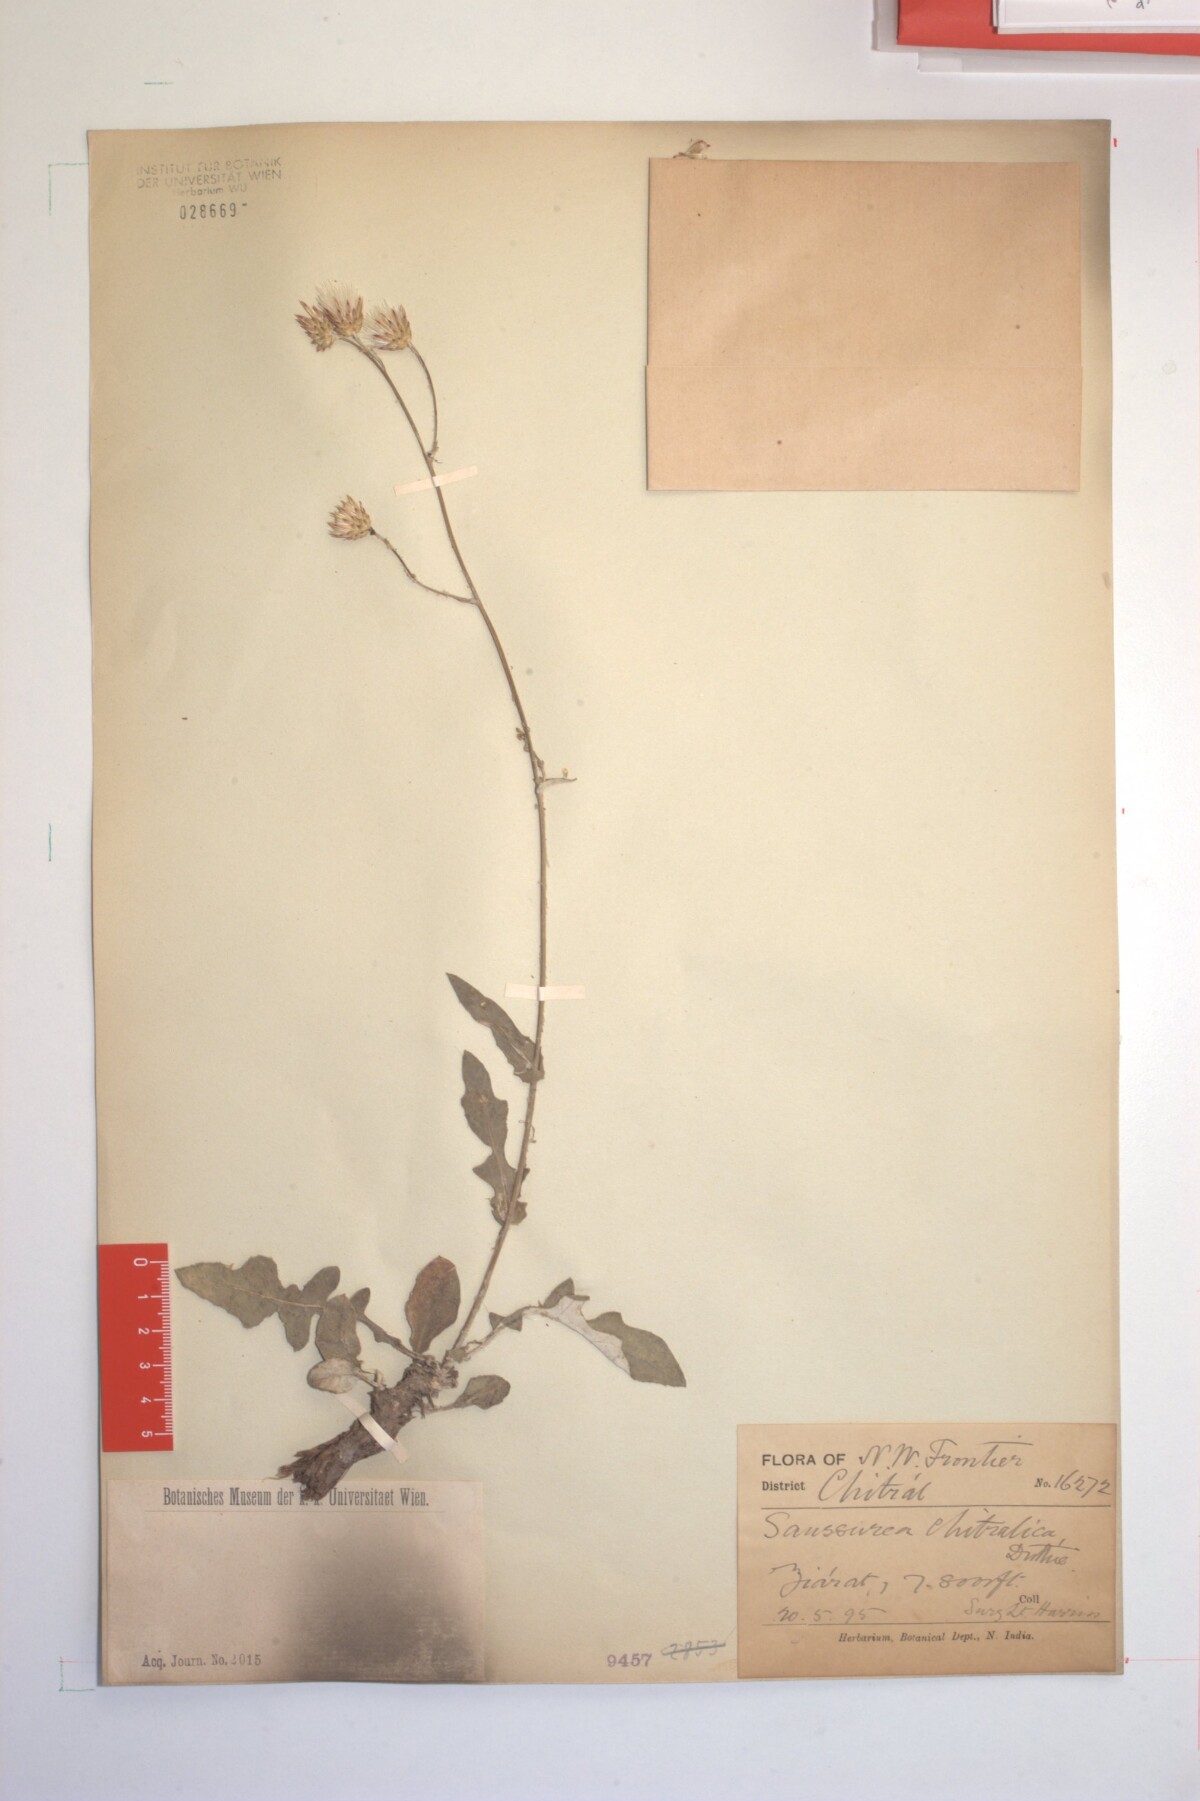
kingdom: Plantae
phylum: Tracheophyta
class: Magnoliopsida
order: Asterales
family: Asteraceae
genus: Jurinea
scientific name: Jurinea chitralica
